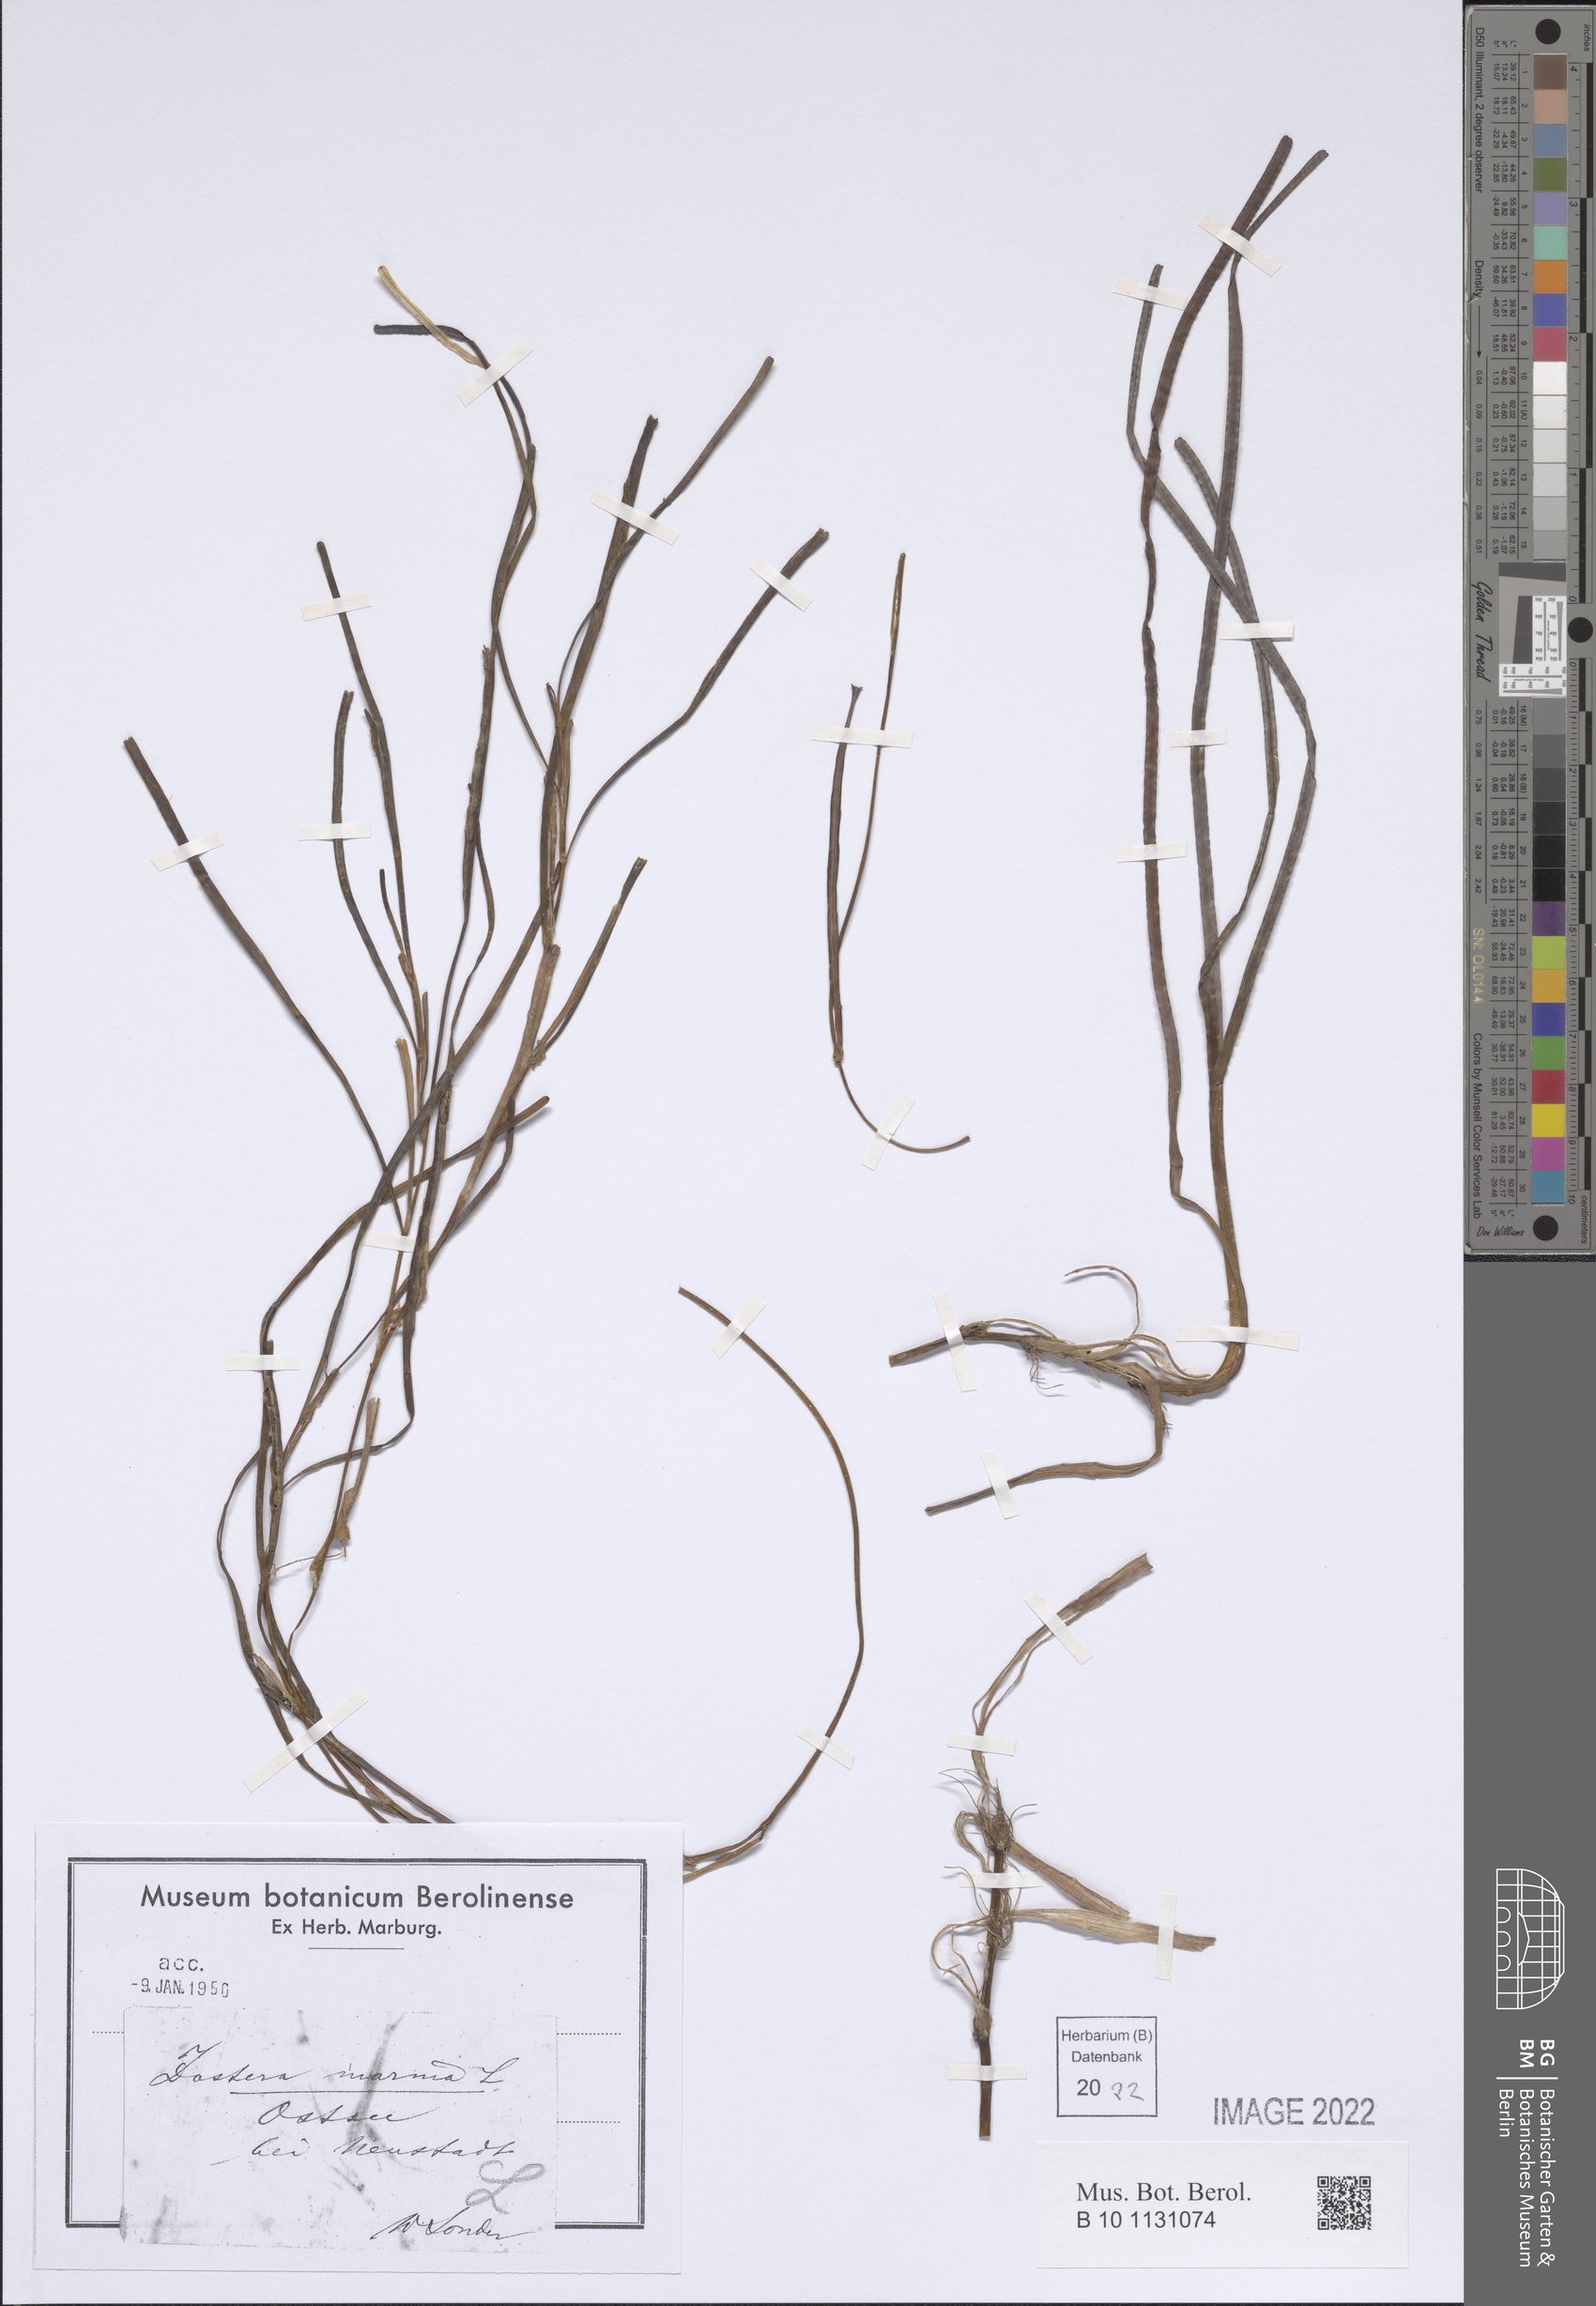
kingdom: Plantae
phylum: Tracheophyta
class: Liliopsida
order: Alismatales
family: Zosteraceae
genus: Zostera
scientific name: Zostera marina
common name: Eelgrass
